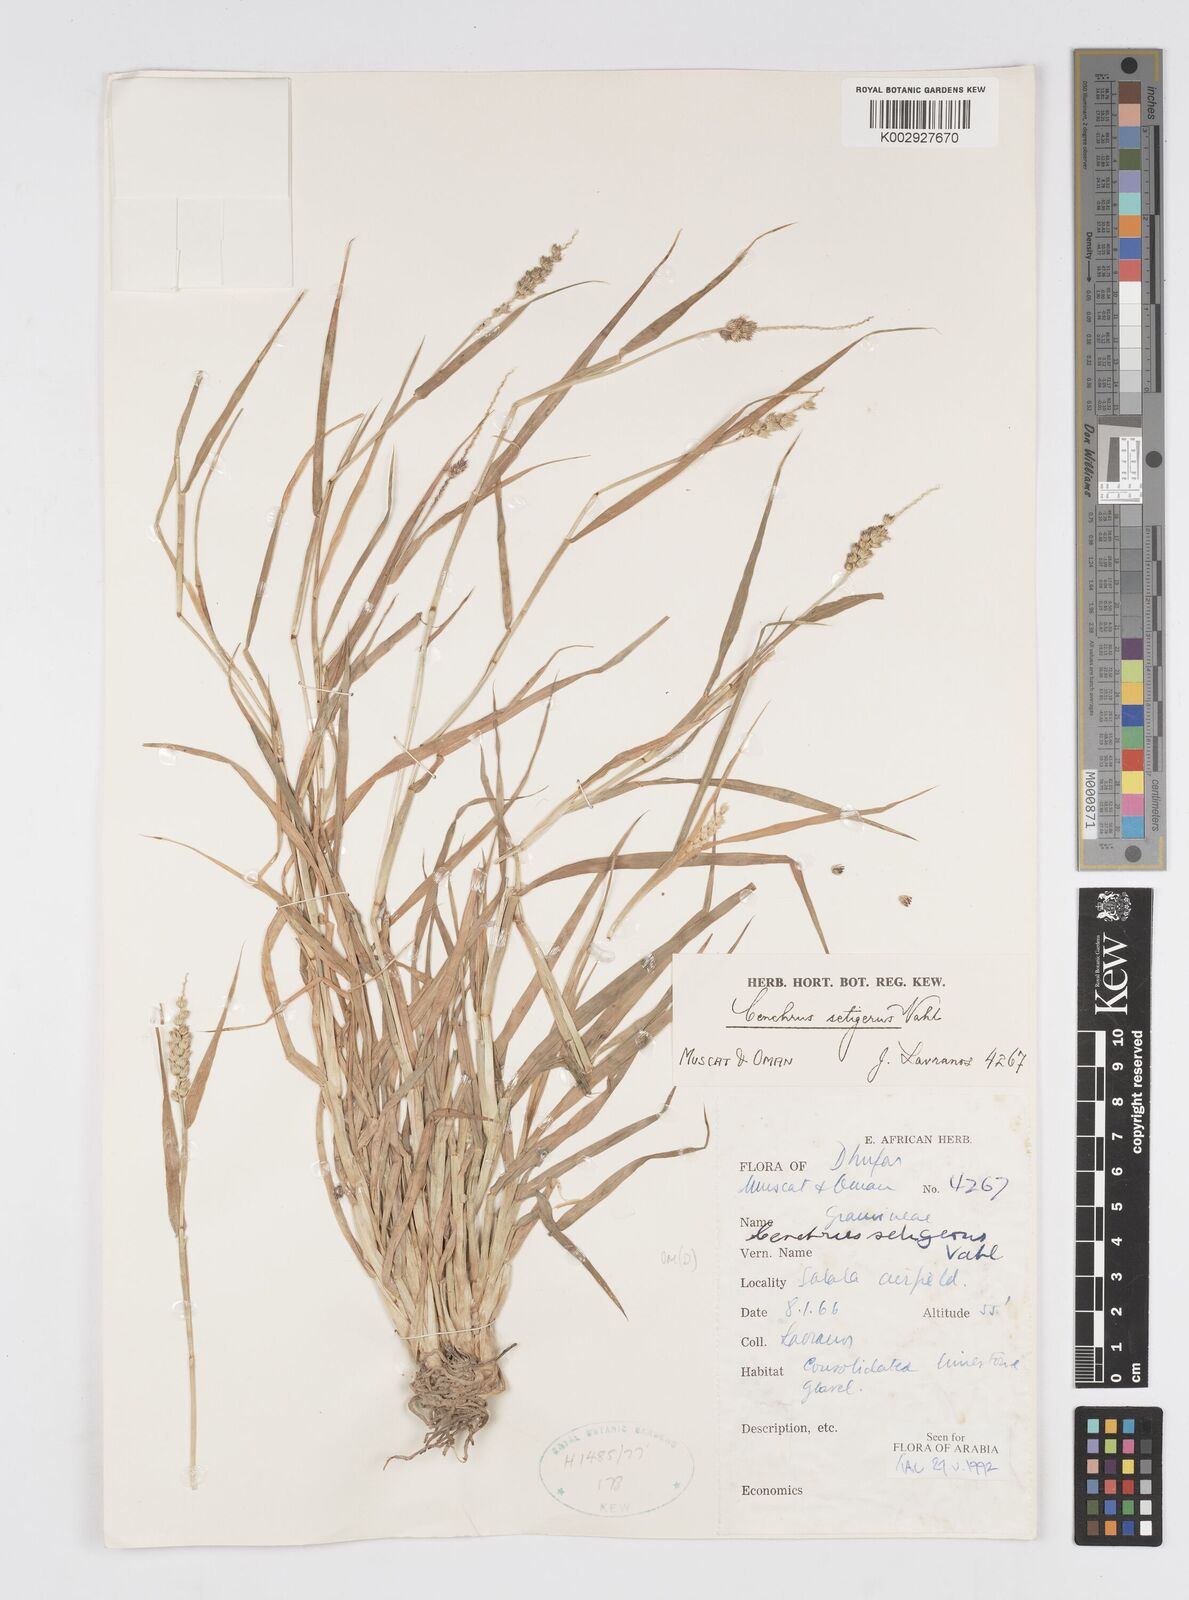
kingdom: Plantae
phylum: Tracheophyta
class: Liliopsida
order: Poales
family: Poaceae
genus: Cenchrus
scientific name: Cenchrus setigerus
